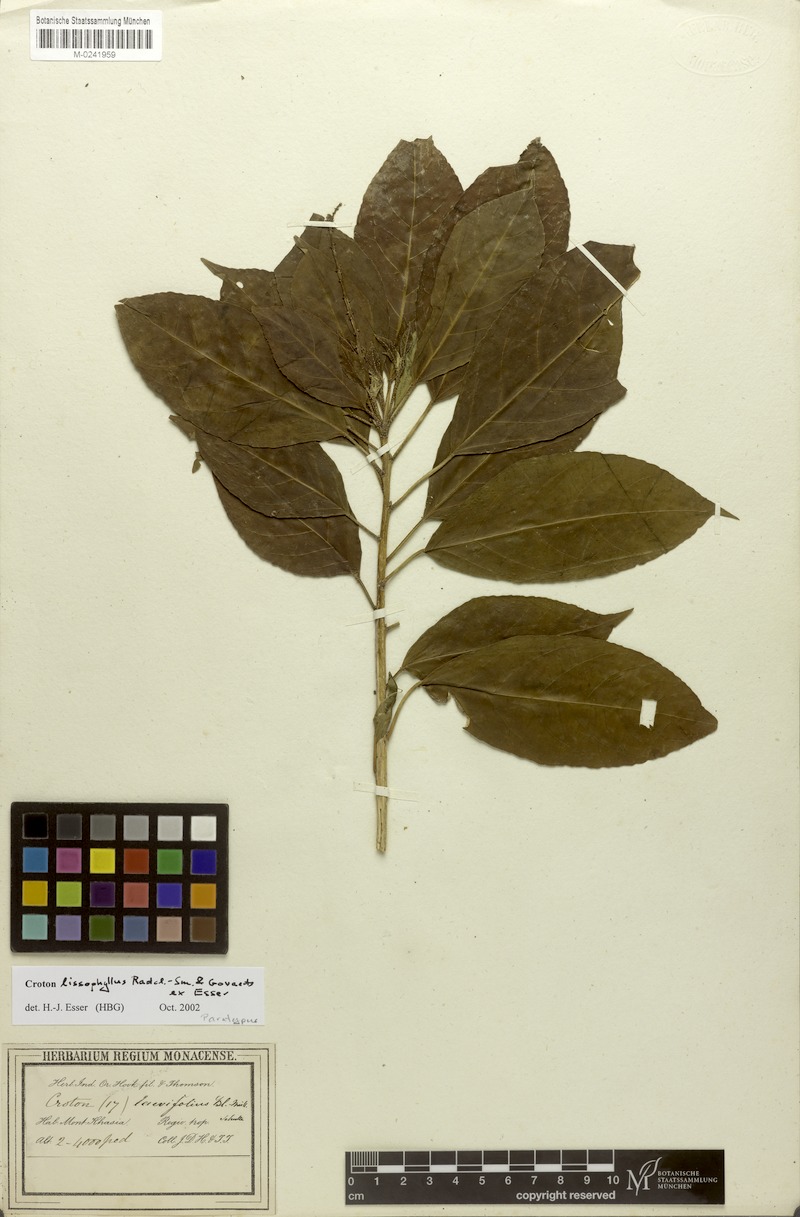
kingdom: Plantae
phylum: Tracheophyta
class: Magnoliopsida
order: Malpighiales
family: Euphorbiaceae
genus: Croton
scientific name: Croton lissophyllus
